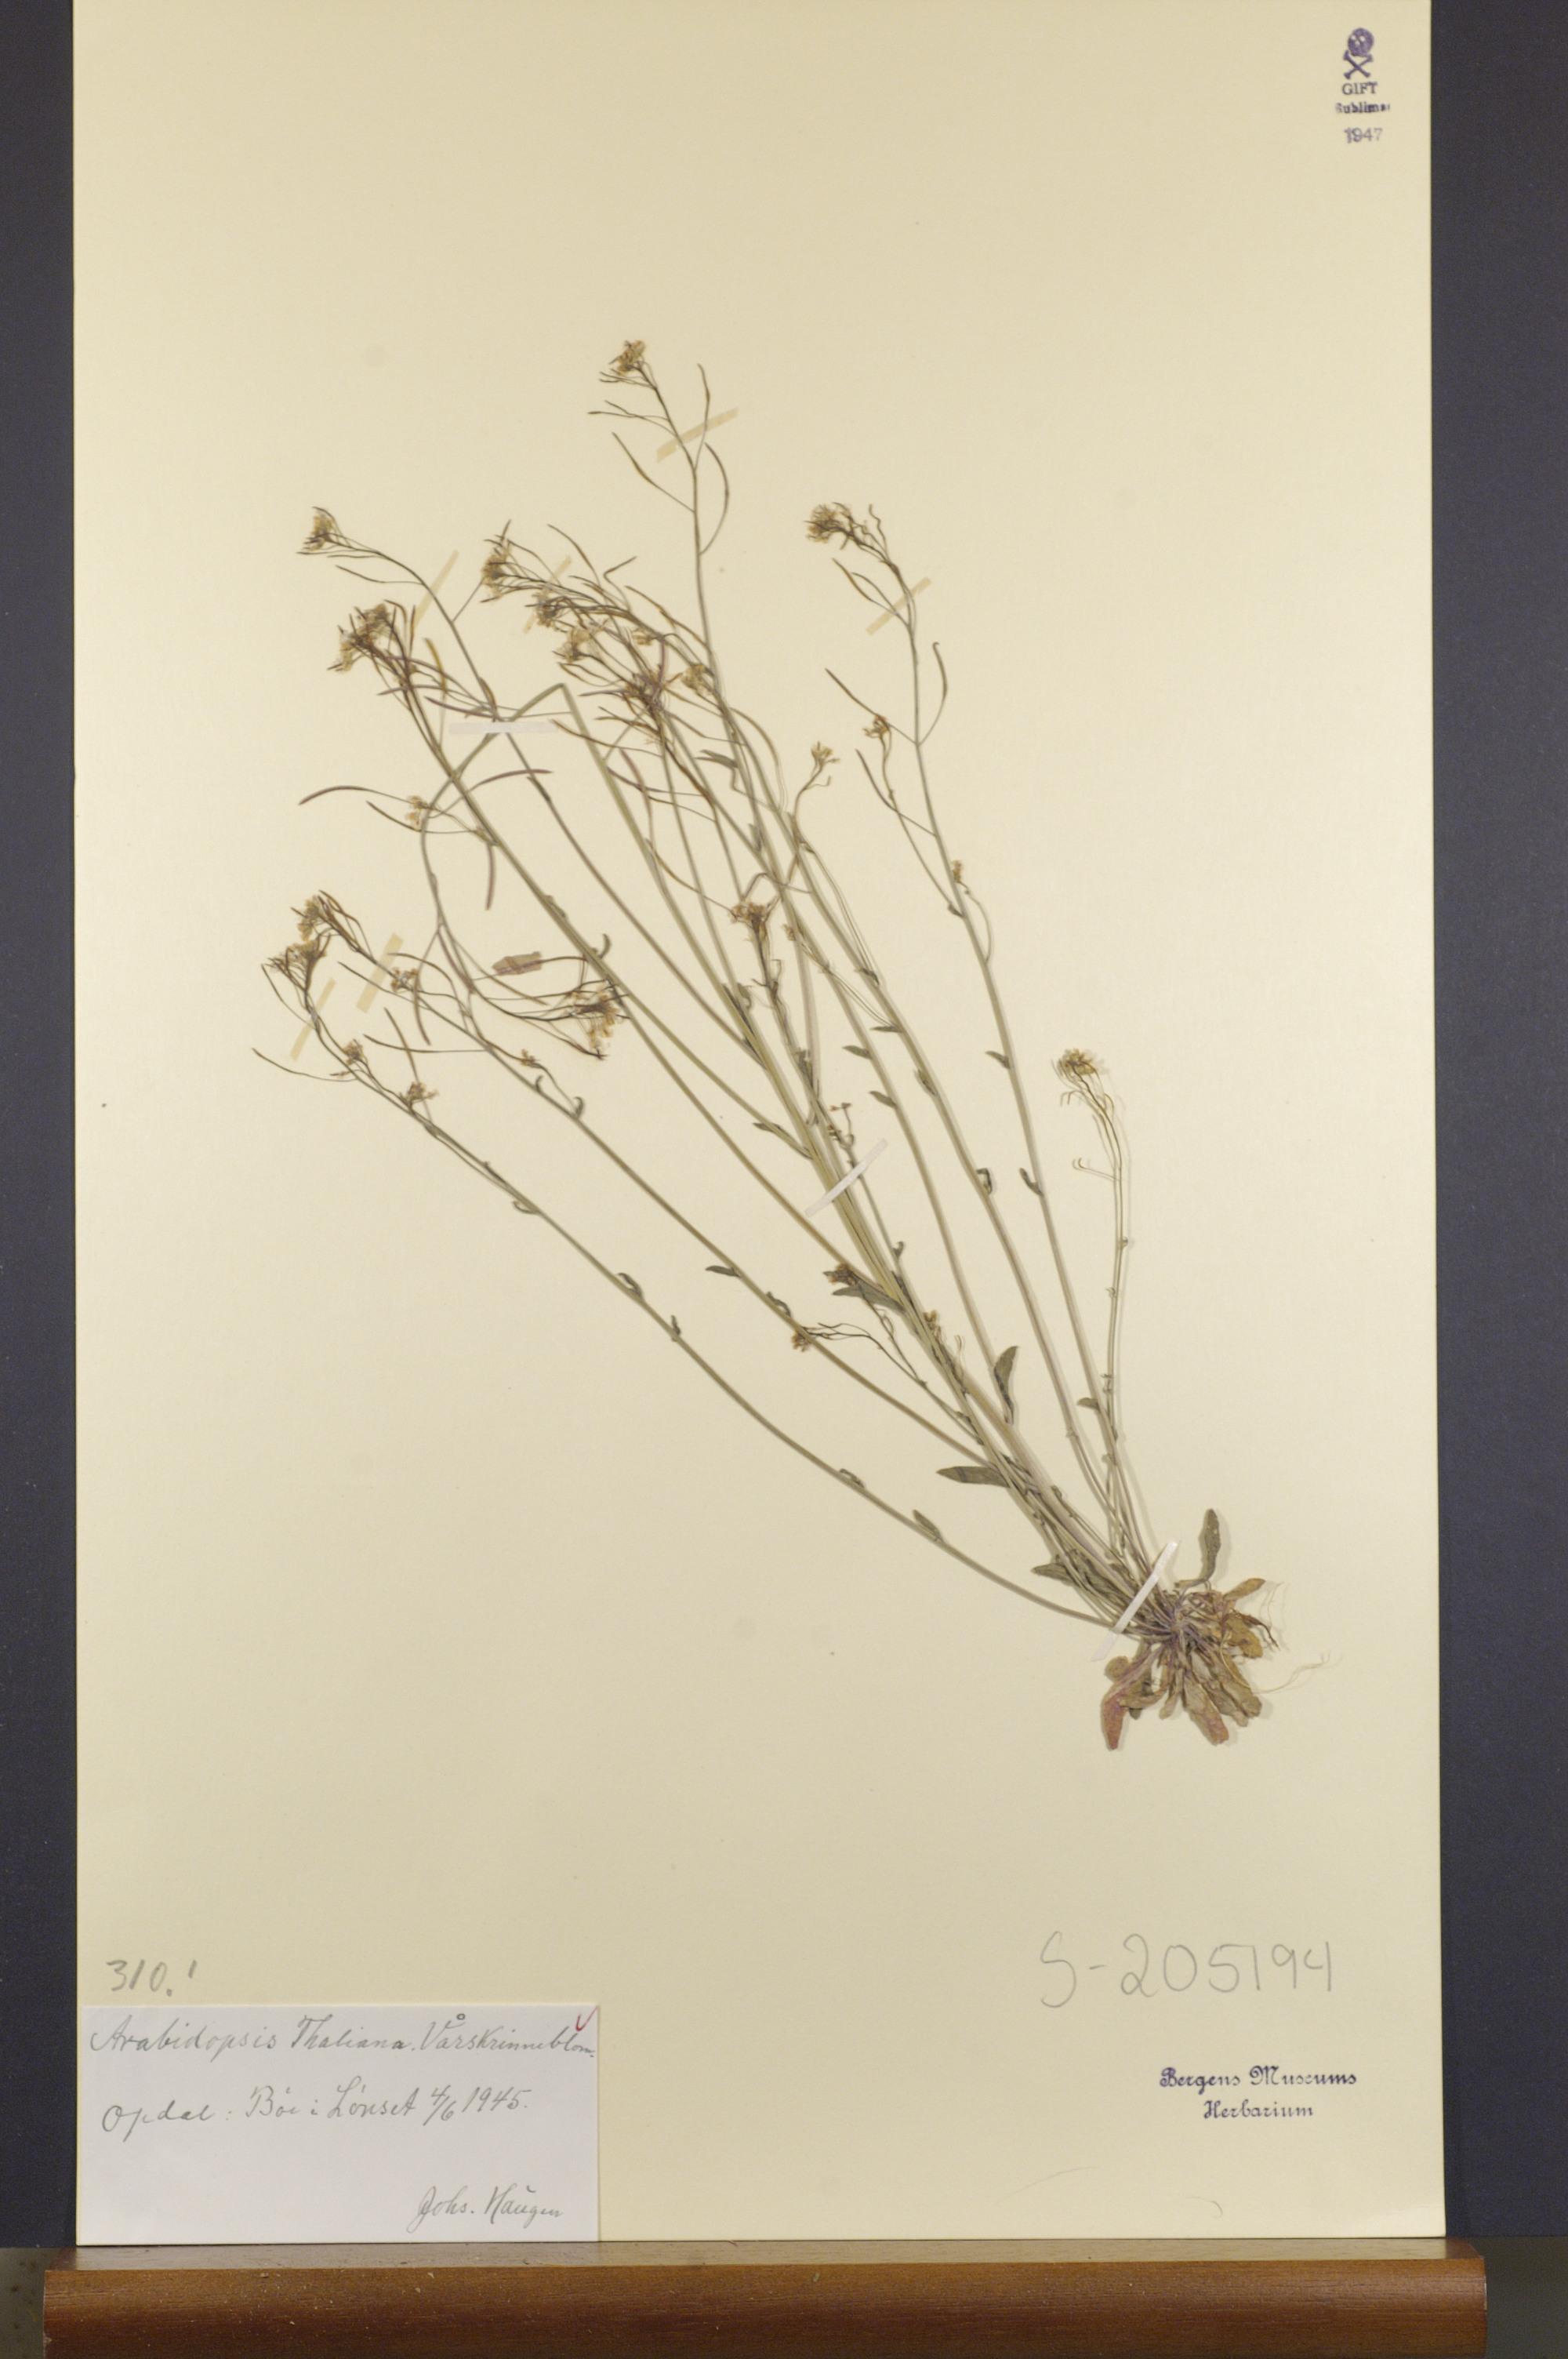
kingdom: Plantae
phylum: Tracheophyta
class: Magnoliopsida
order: Brassicales
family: Brassicaceae
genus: Arabidopsis
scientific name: Arabidopsis thaliana
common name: Thale cress
